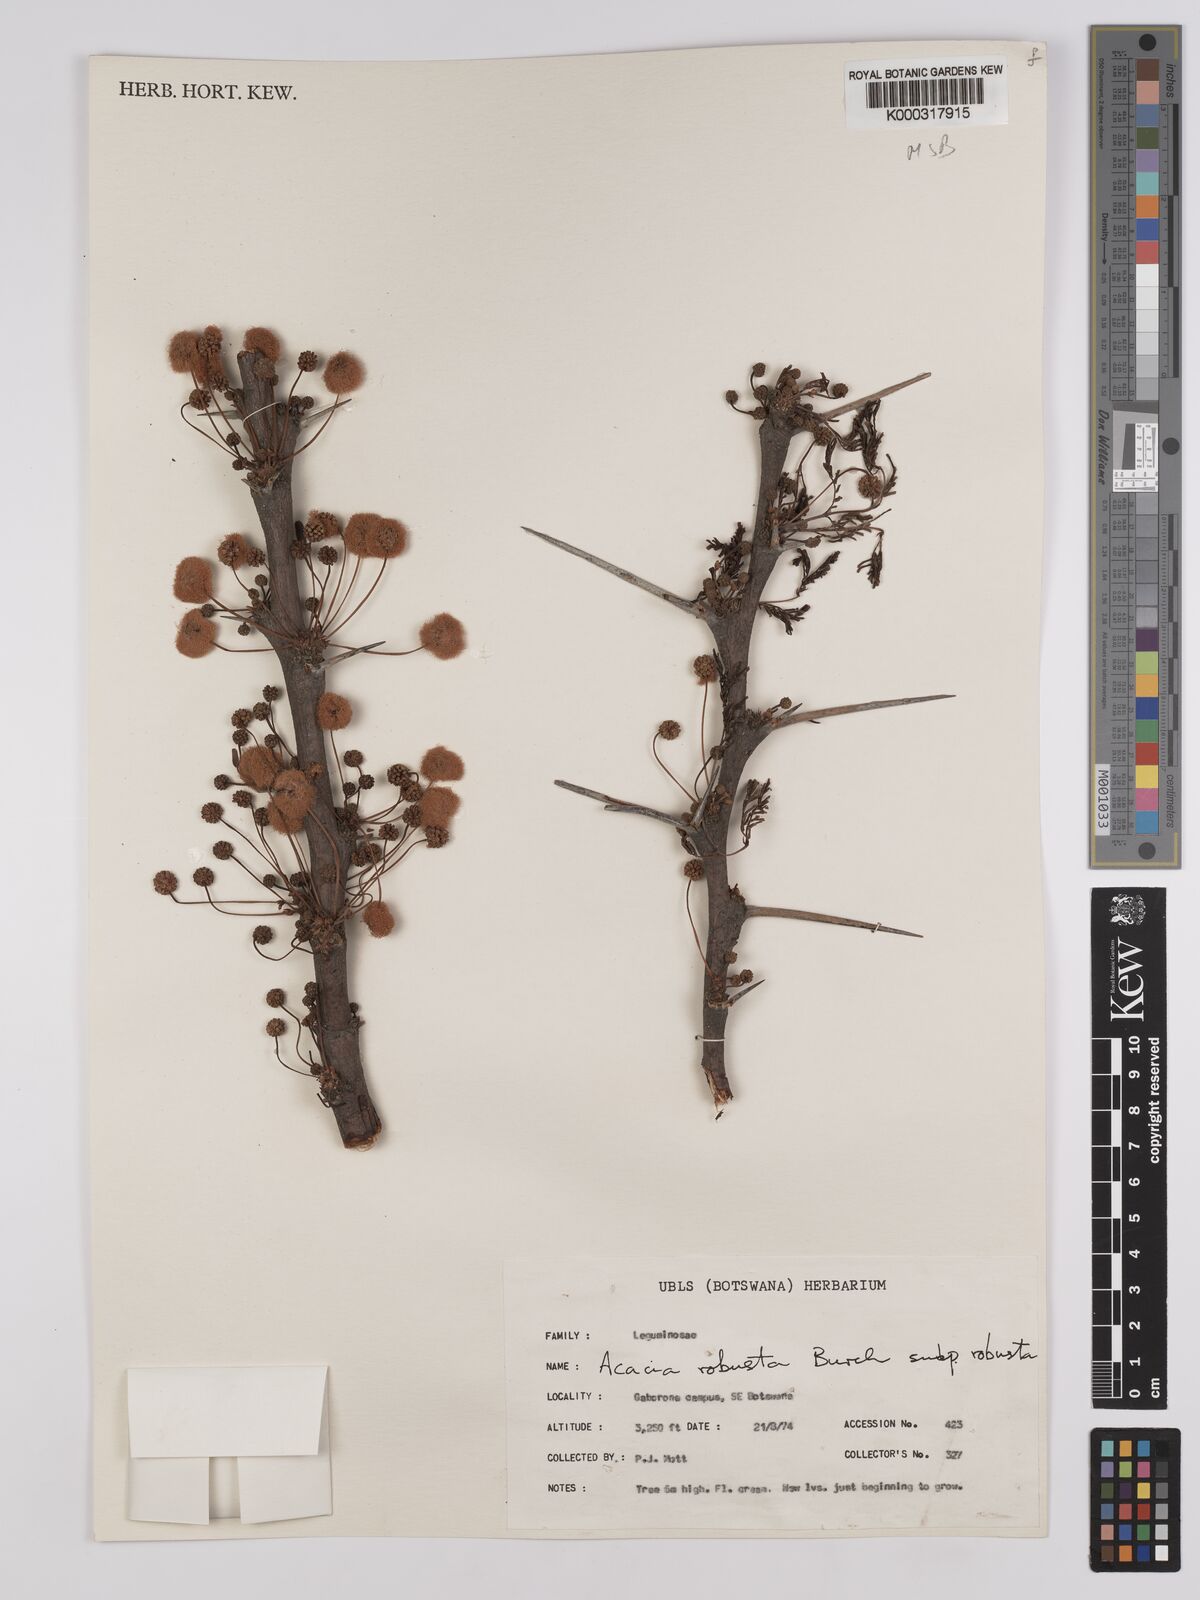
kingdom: Plantae
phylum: Tracheophyta
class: Magnoliopsida
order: Fabales
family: Fabaceae
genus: Vachellia
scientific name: Vachellia robusta
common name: Ankle thorn
